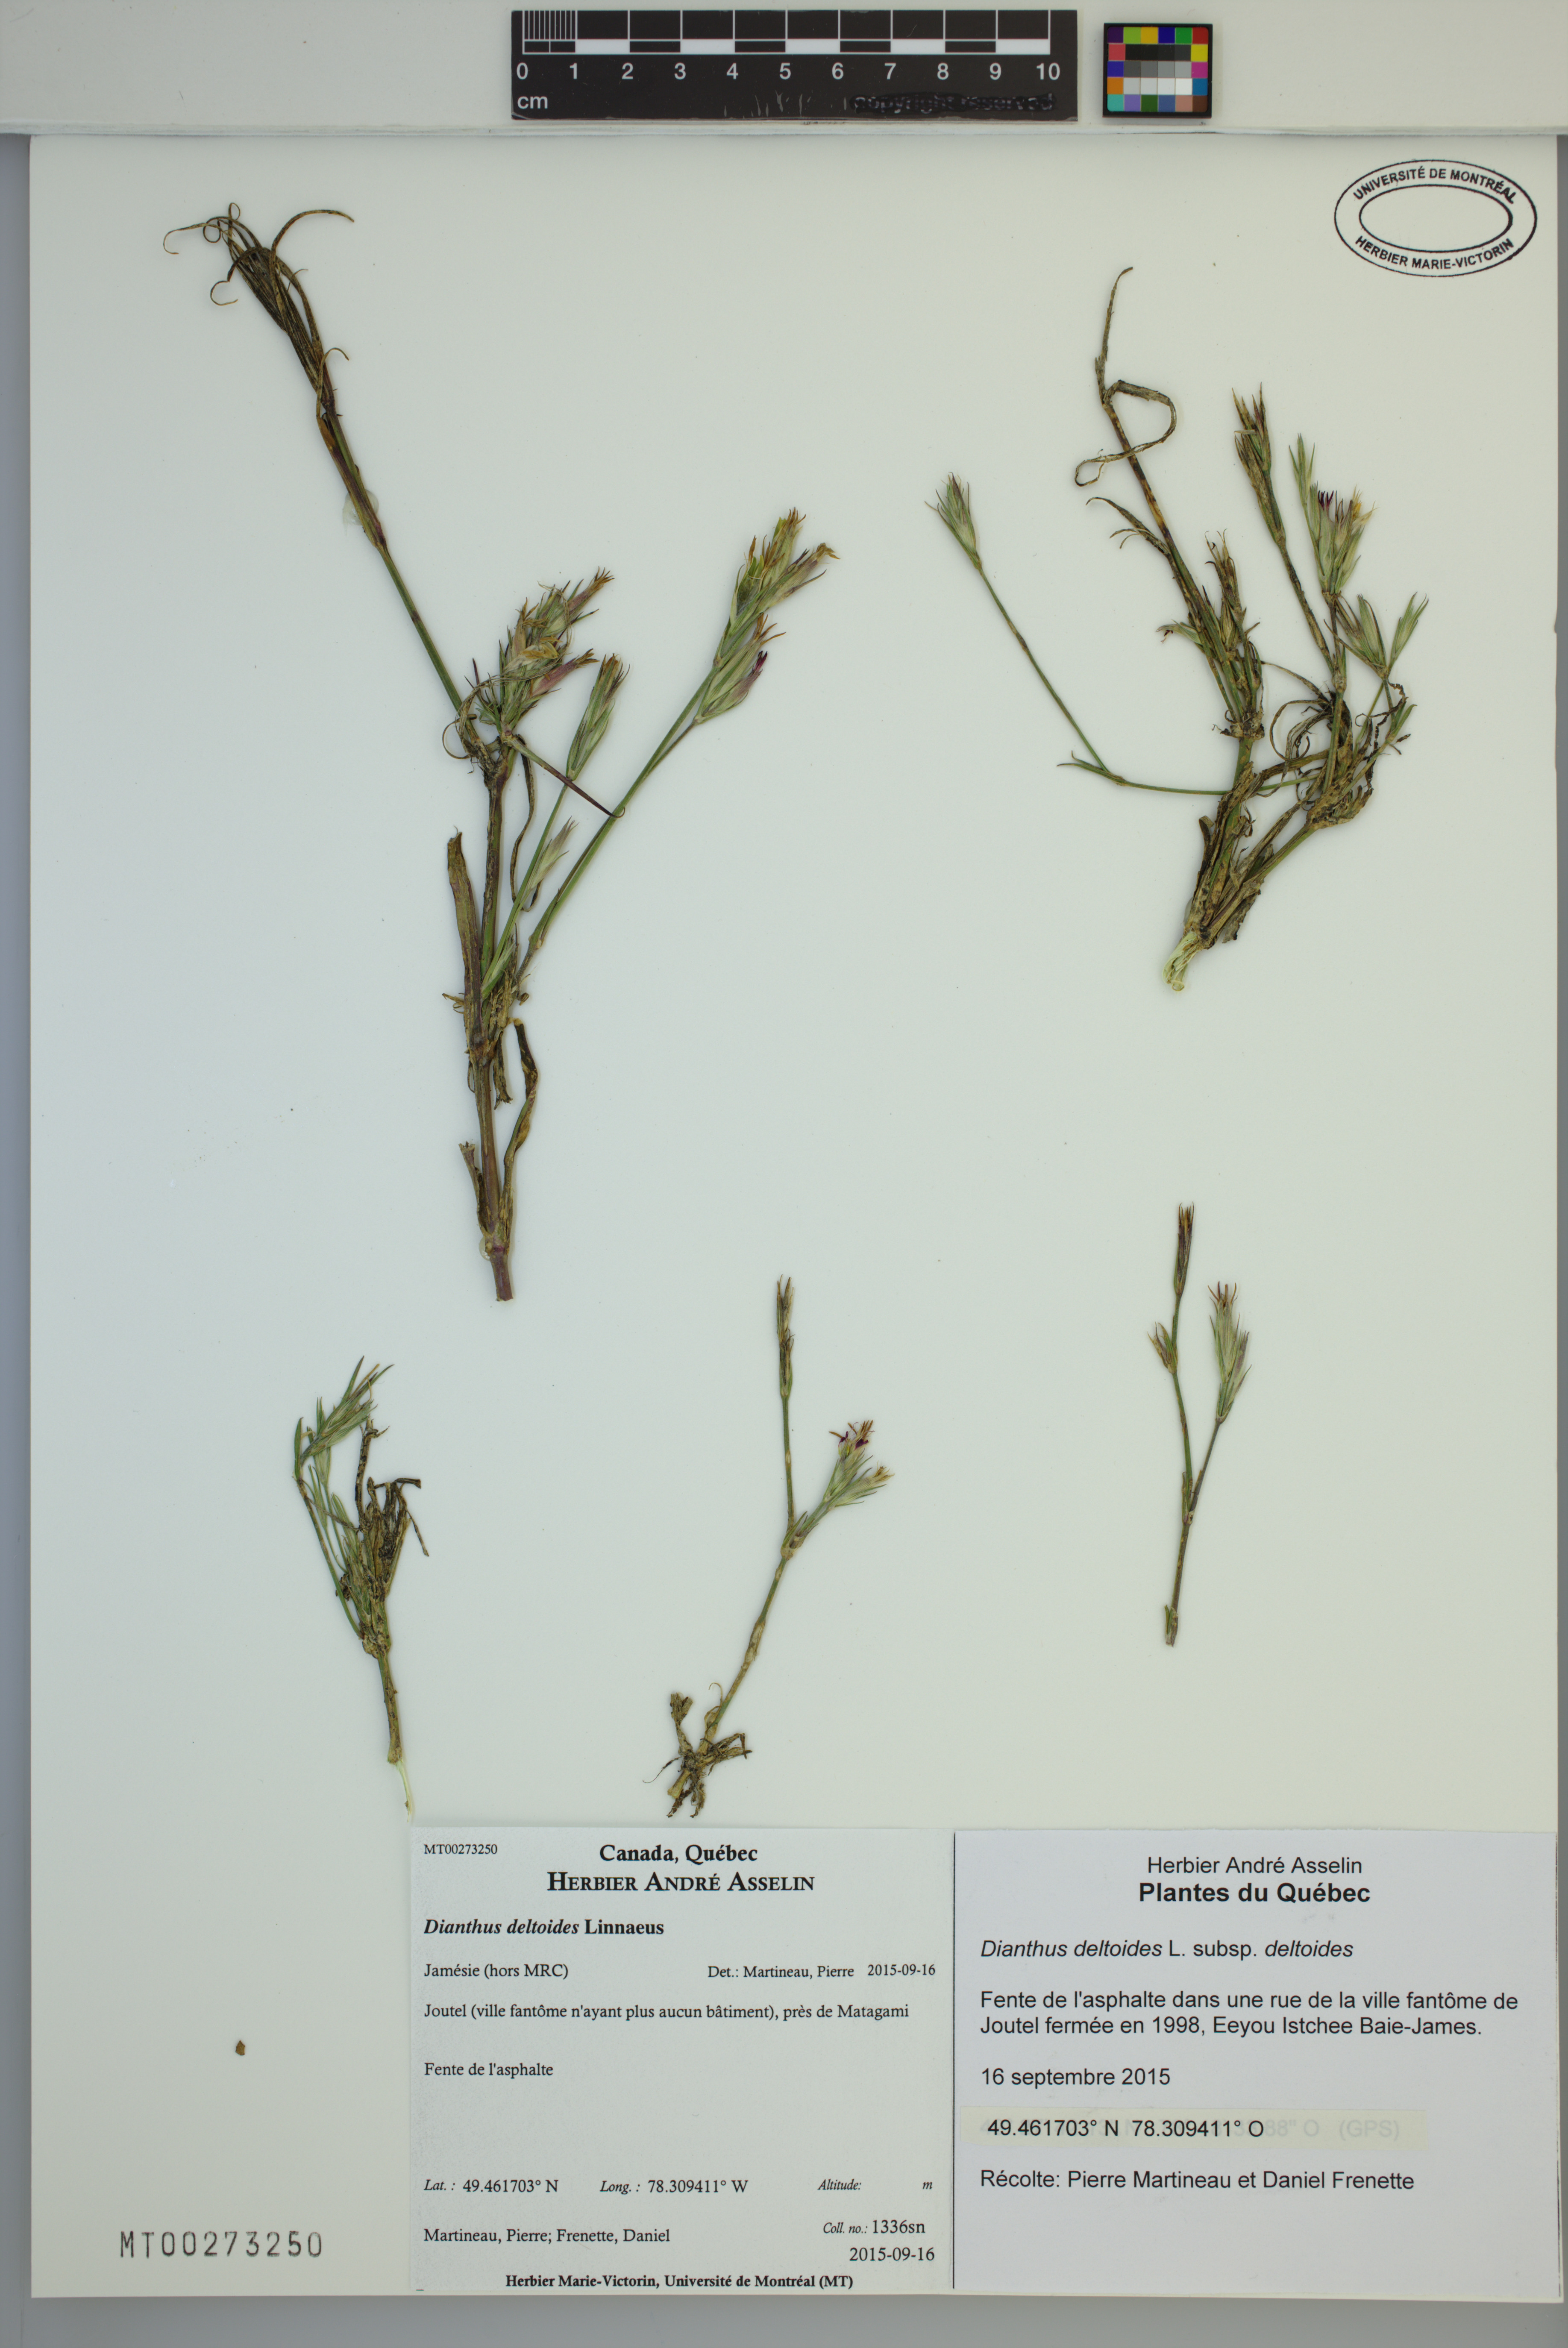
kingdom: Plantae
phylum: Tracheophyta
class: Magnoliopsida
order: Caryophyllales
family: Caryophyllaceae
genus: Dianthus
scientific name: Dianthus deltoides
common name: Maiden pink
